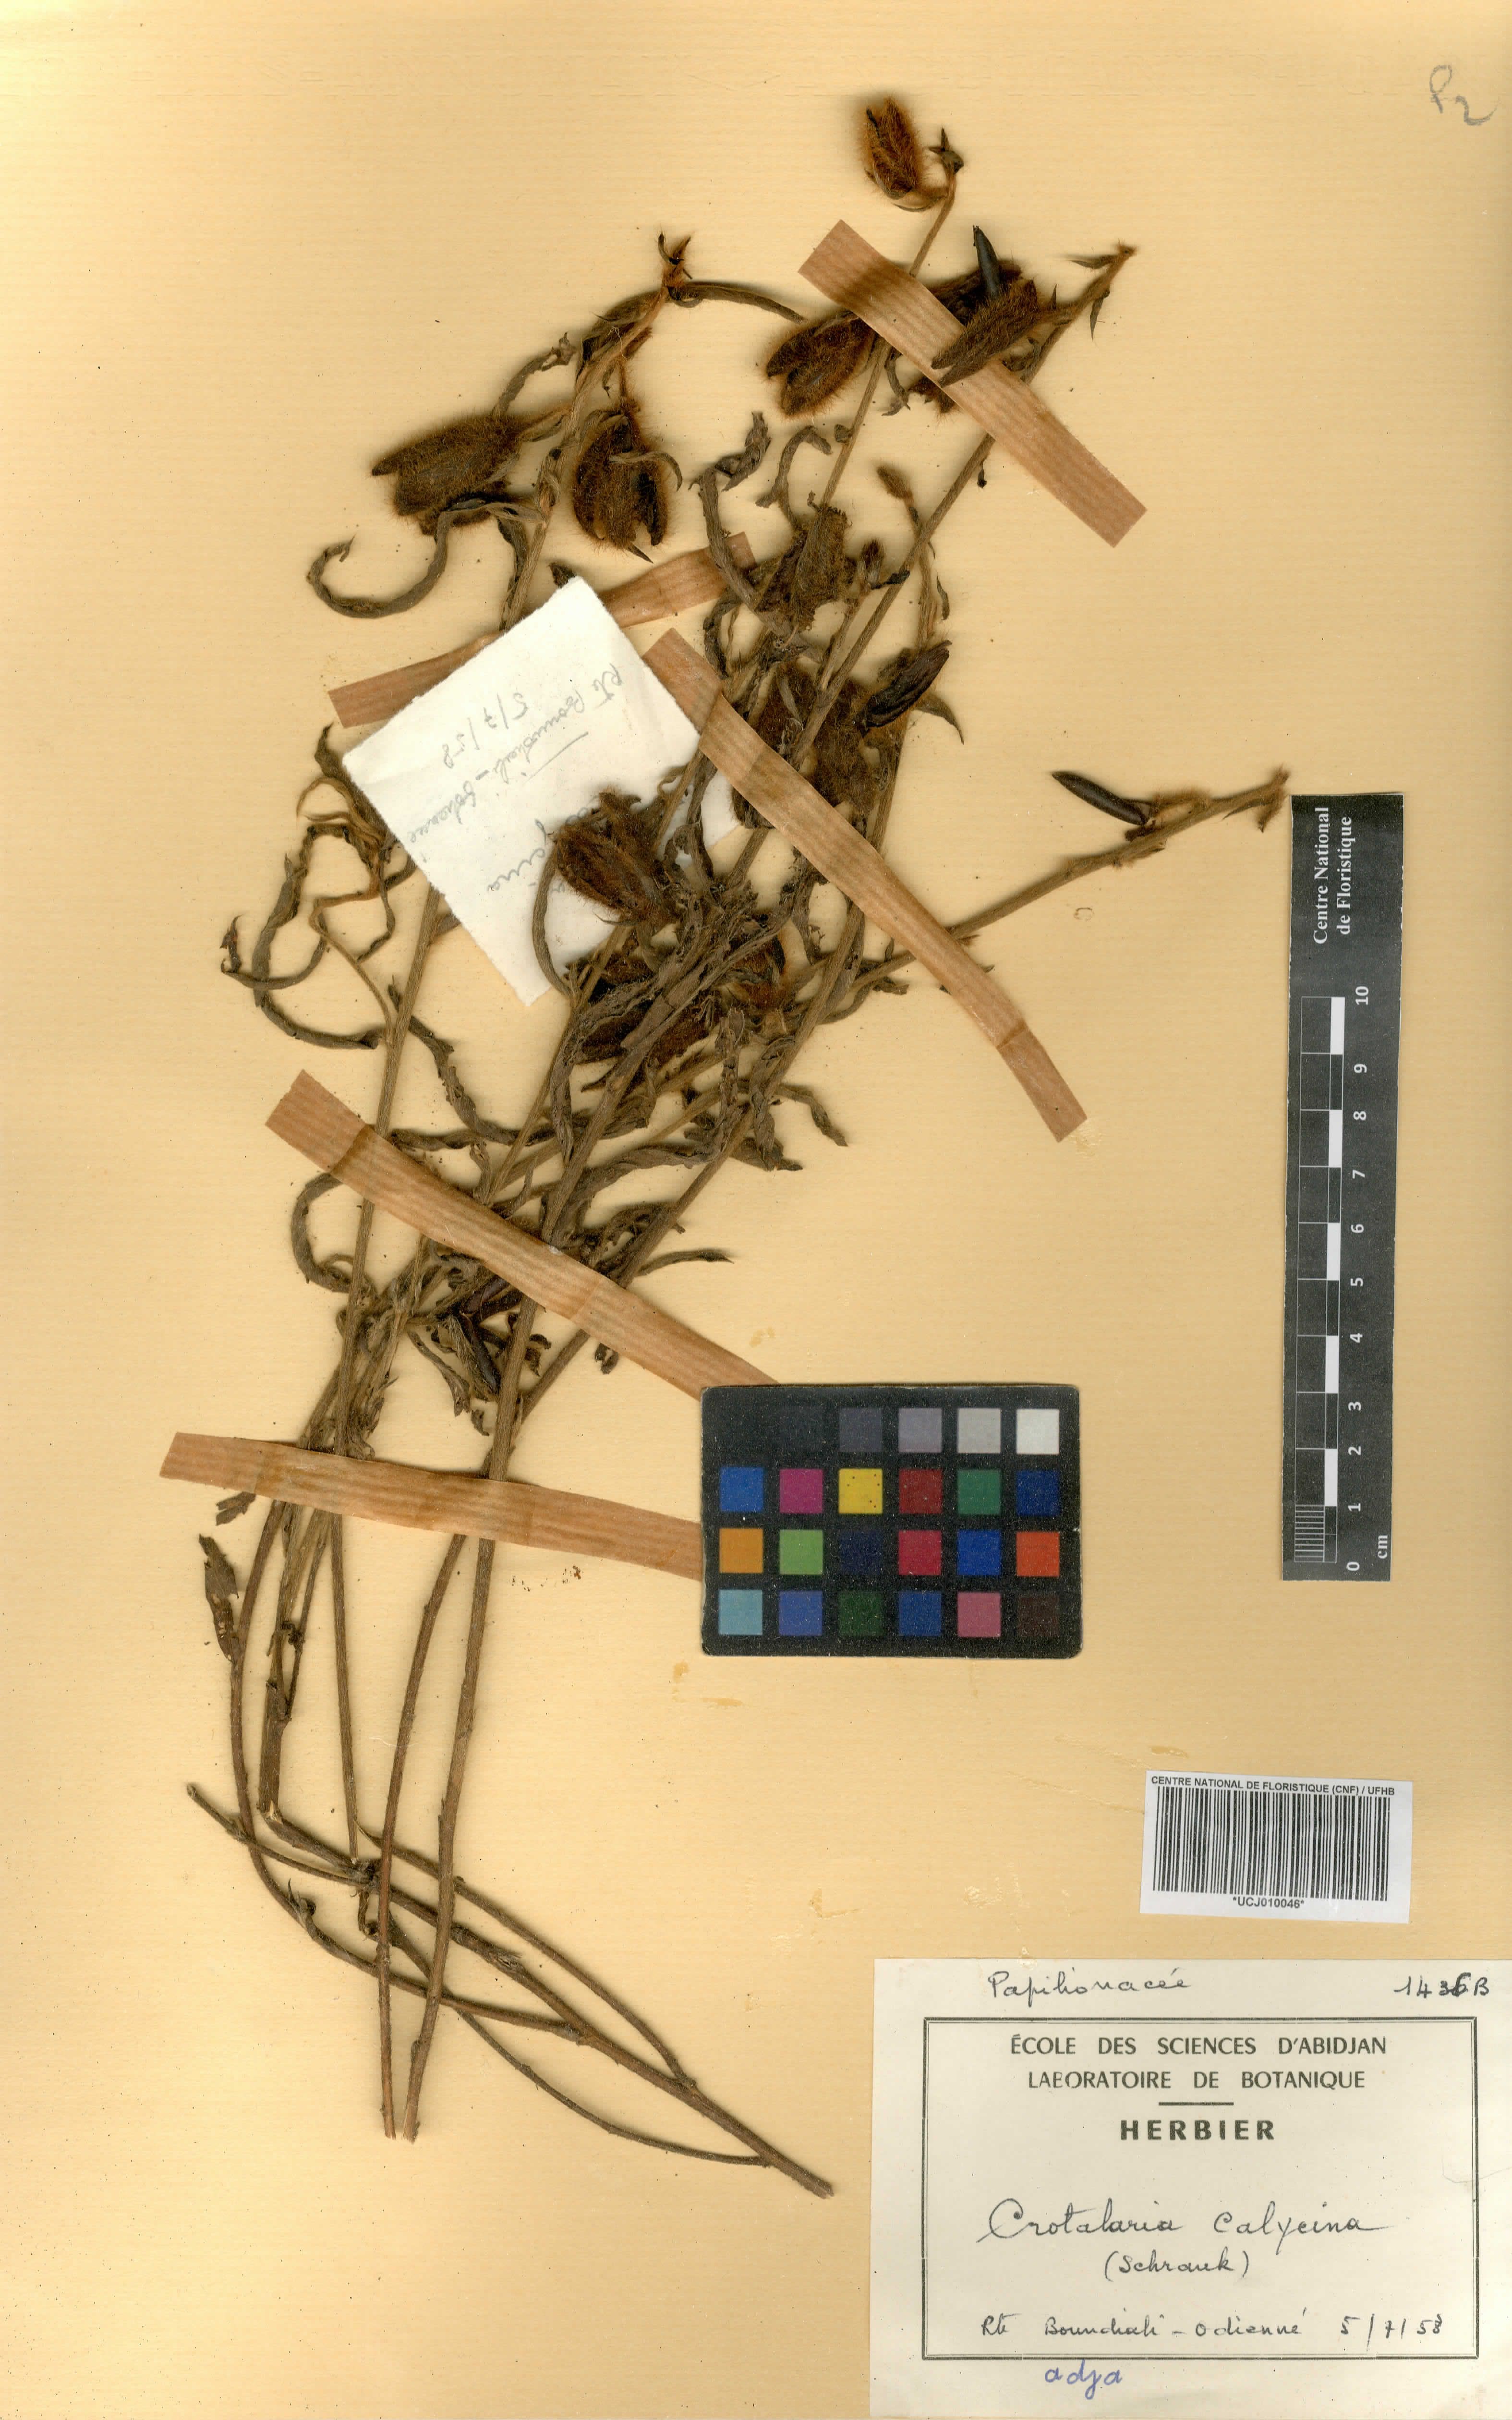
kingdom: Plantae
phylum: Tracheophyta
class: Magnoliopsida
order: Fabales
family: Fabaceae
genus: Crotalaria
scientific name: Crotalaria calycina
